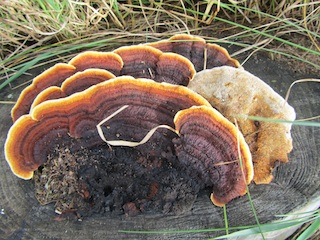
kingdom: Fungi
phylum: Basidiomycota
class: Agaricomycetes
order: Gloeophyllales
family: Gloeophyllaceae
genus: Gloeophyllum
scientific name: Gloeophyllum sepiarium
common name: fyrre-korkhat
